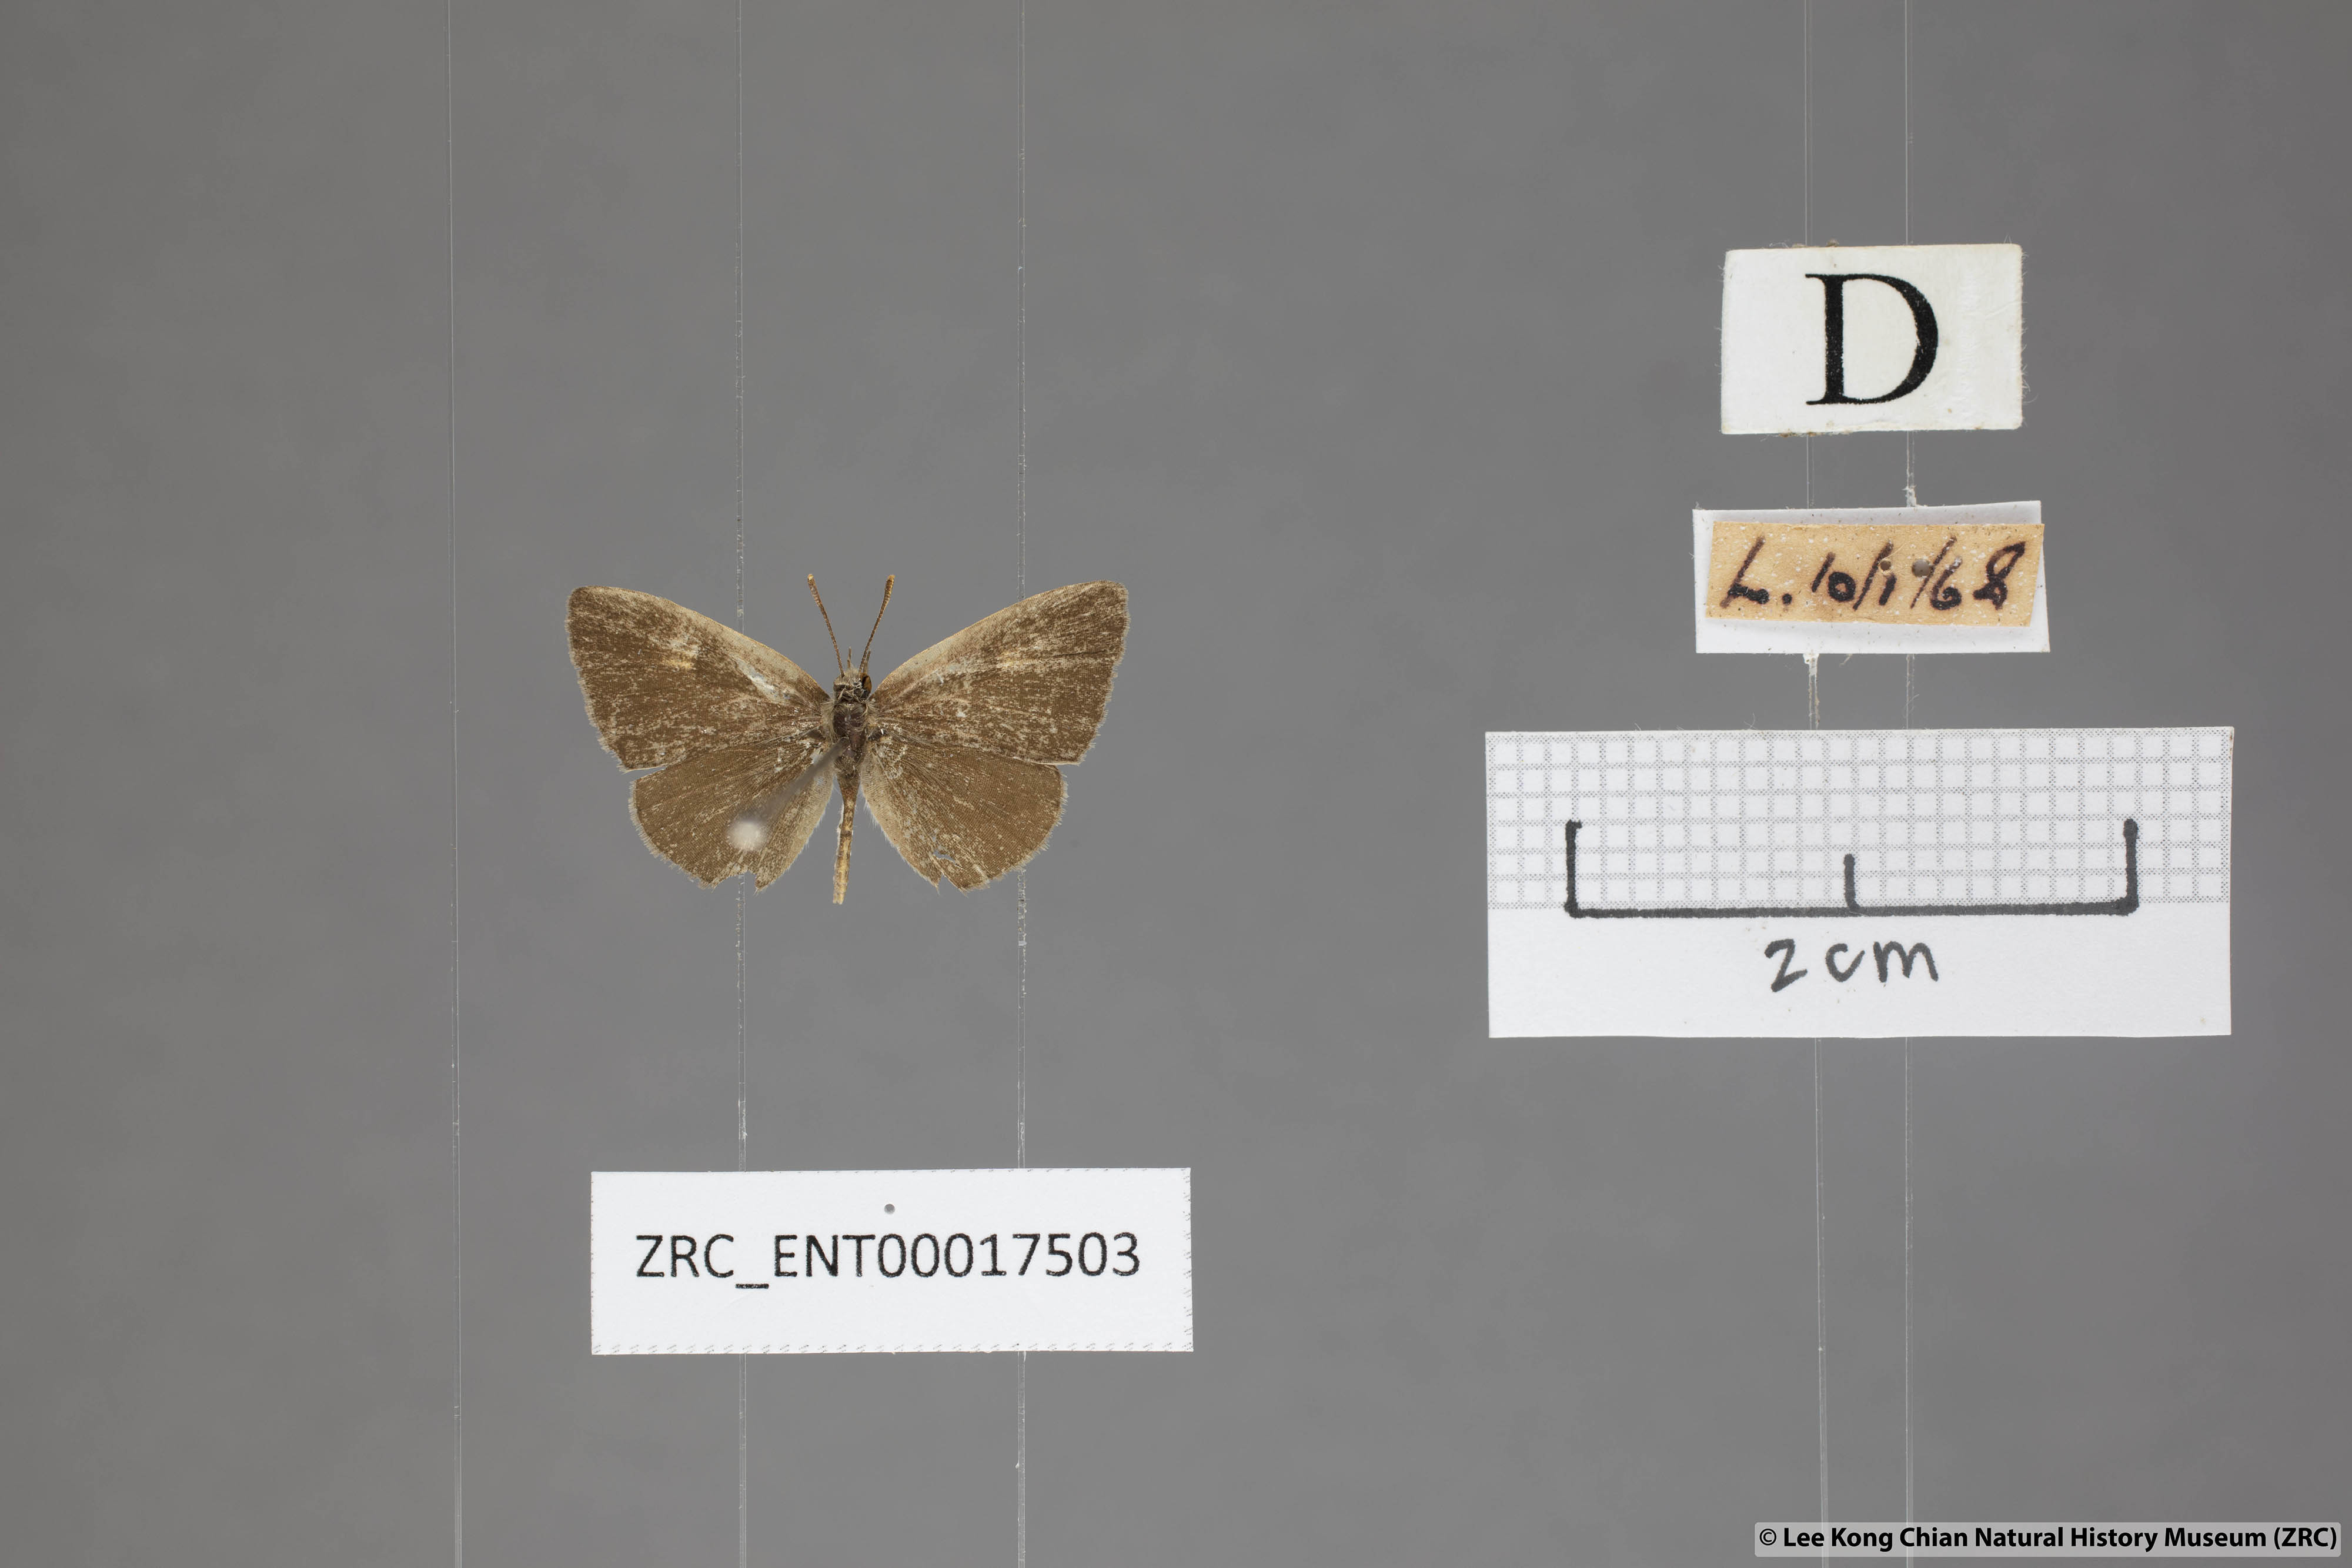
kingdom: Animalia
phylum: Arthropoda
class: Insecta
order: Lepidoptera
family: Lycaenidae
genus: Spalgis
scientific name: Spalgis epeus
